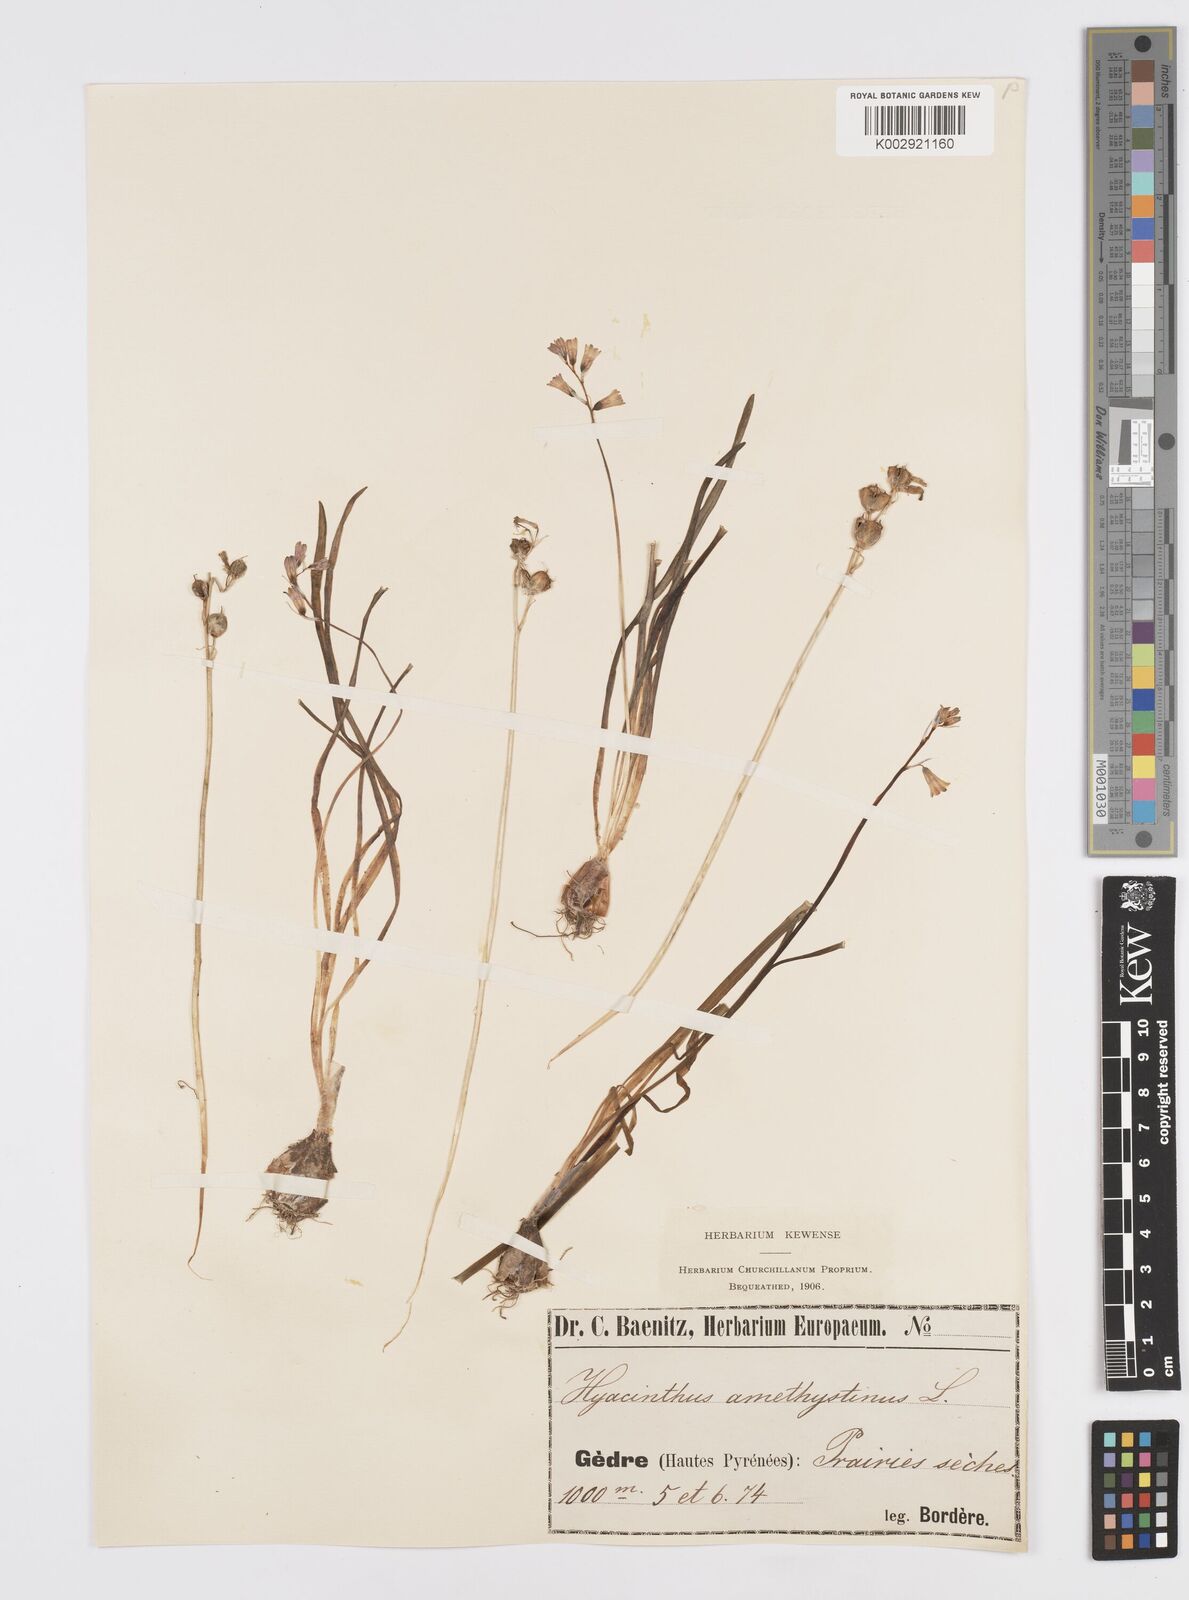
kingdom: Plantae
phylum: Tracheophyta
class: Liliopsida
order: Asparagales
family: Asparagaceae
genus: Brimeura
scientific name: Brimeura amethystina
